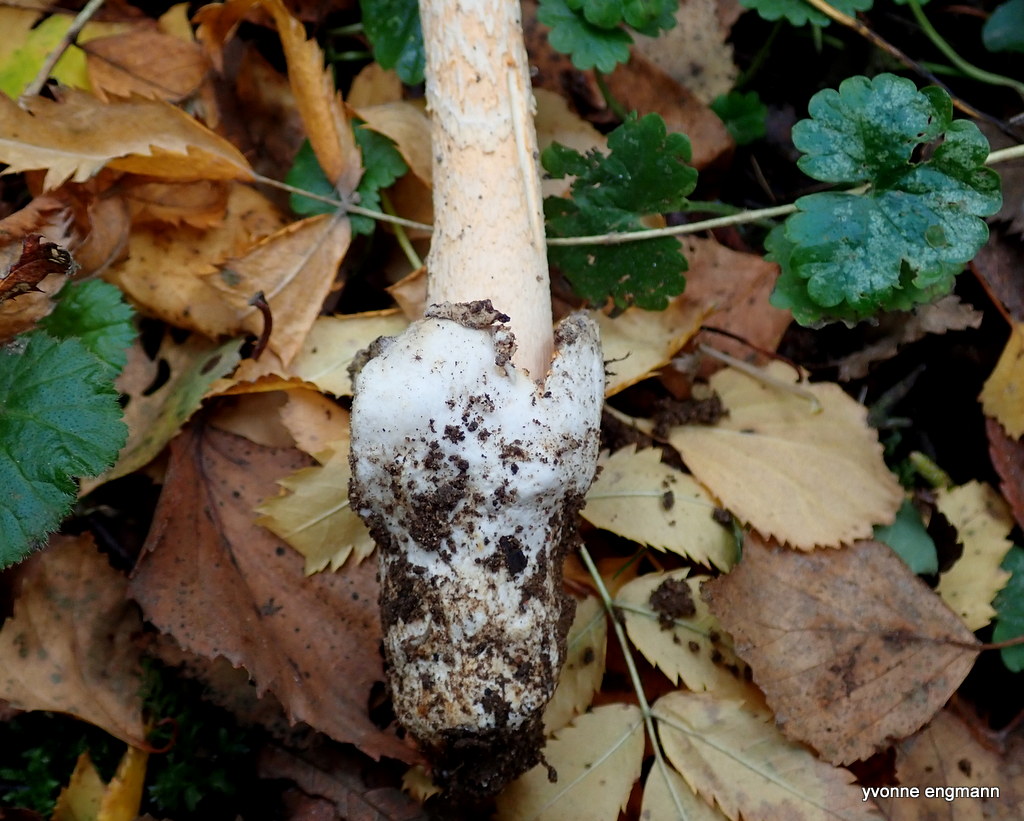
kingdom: Fungi
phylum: Basidiomycota
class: Agaricomycetes
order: Agaricales
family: Amanitaceae
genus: Amanita
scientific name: Amanita crocea
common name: gylden kam-fluesvamp
